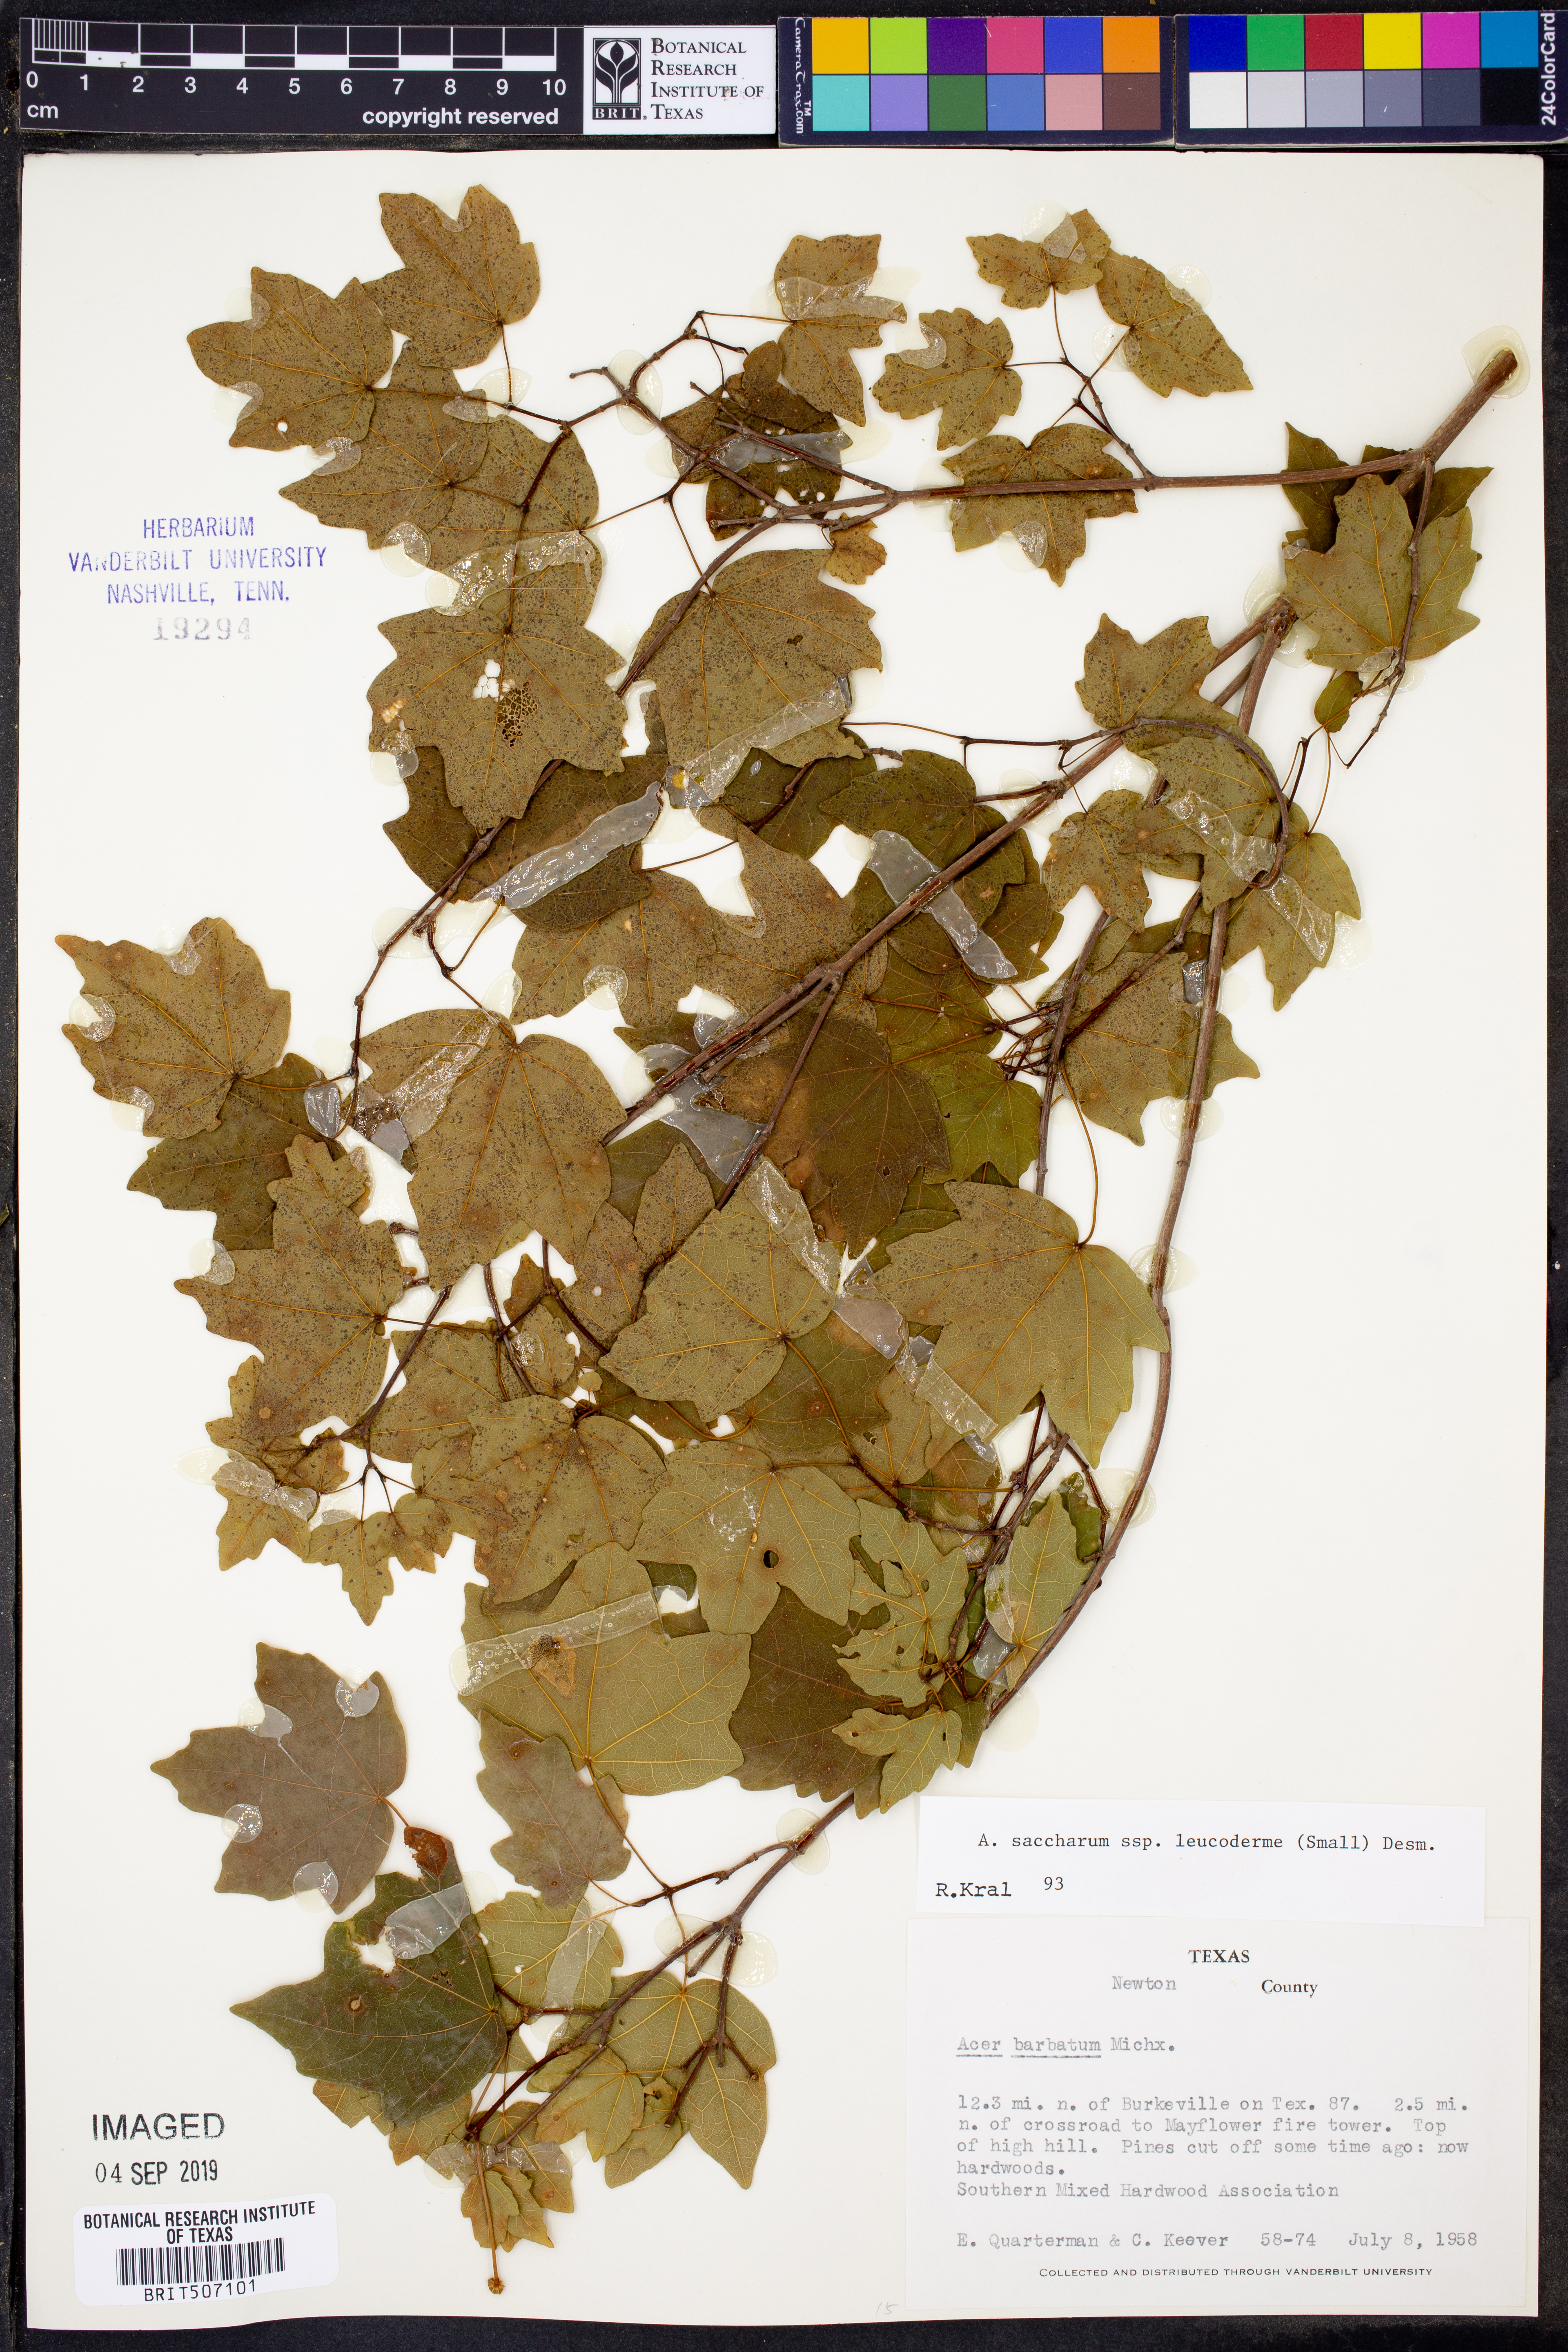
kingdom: Plantae
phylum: Tracheophyta
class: Magnoliopsida
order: Sapindales
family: Sapindaceae
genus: Acer
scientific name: Acer leucoderme
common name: Chalk maple
